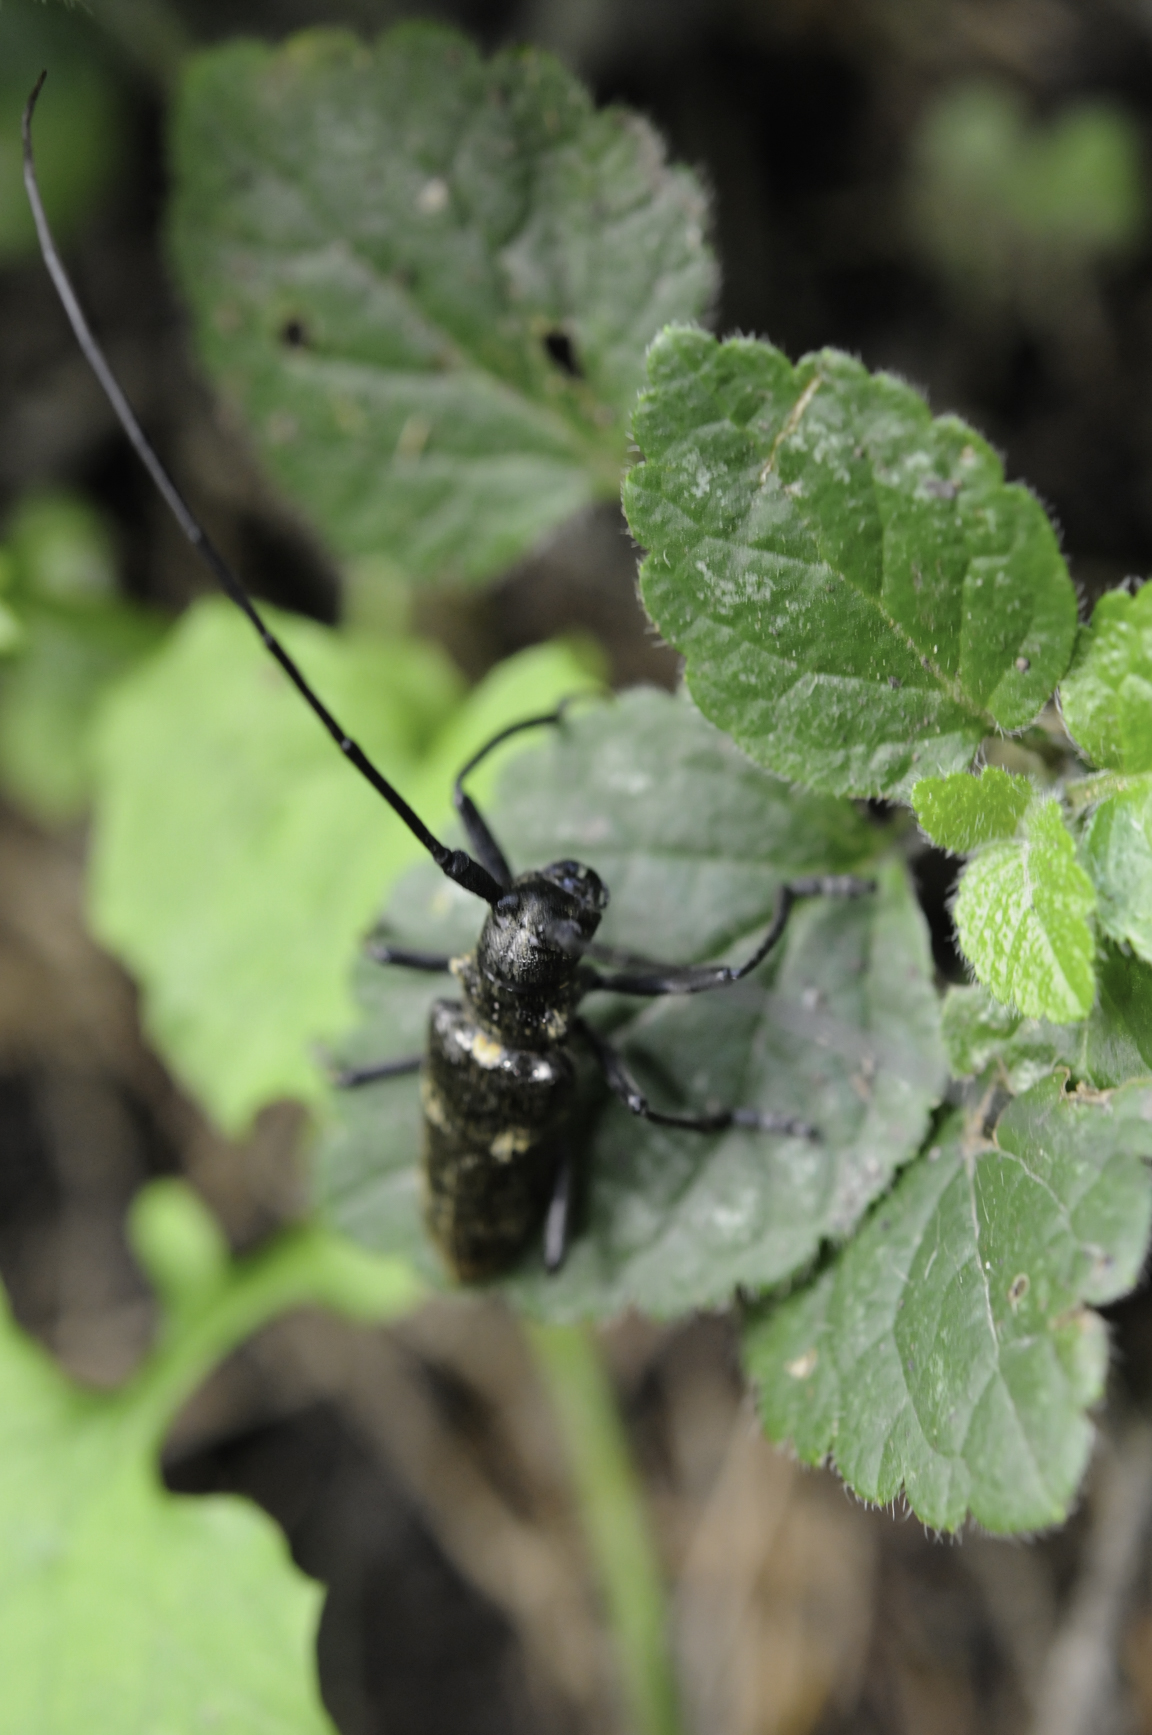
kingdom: Animalia
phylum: Arthropoda
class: Insecta
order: Coleoptera
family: Cerambycidae
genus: Monochamus
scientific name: Monochamus galloprovincialis
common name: Pine sawyer
